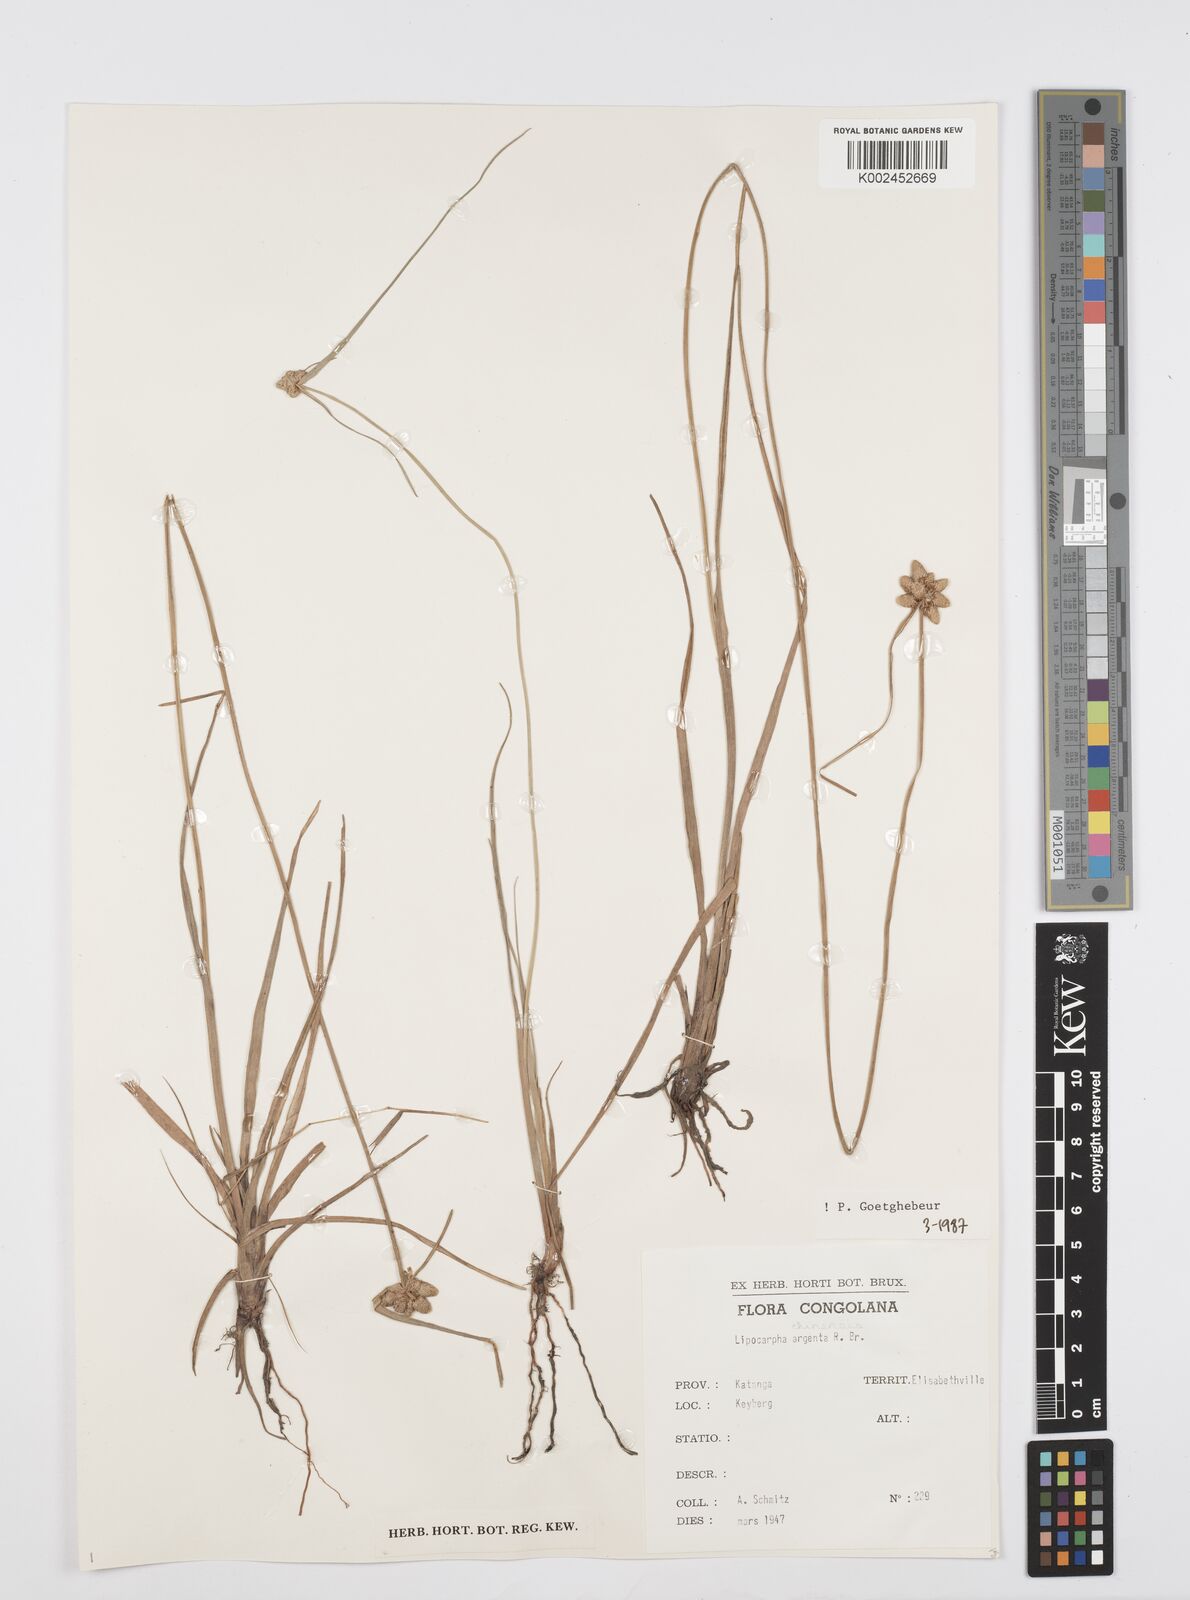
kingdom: Plantae
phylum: Tracheophyta
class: Liliopsida
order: Poales
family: Cyperaceae
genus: Cyperus
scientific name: Cyperus albescens
